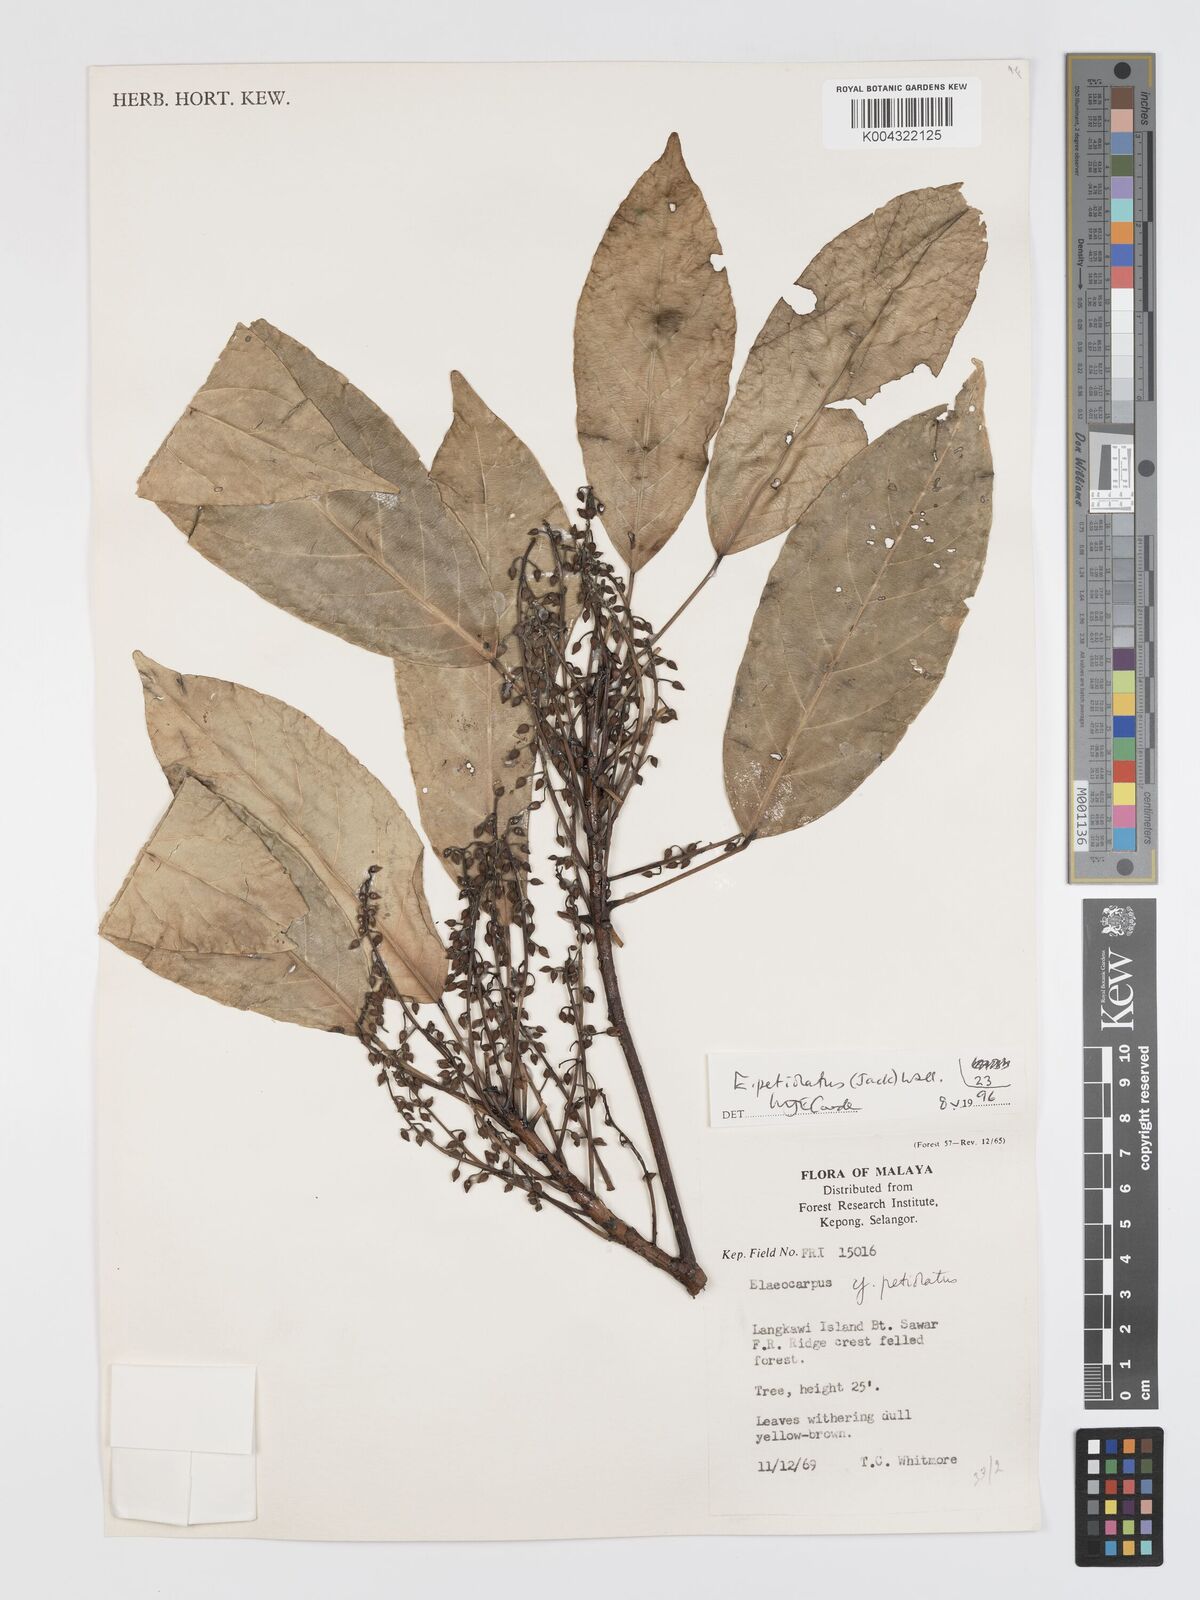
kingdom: Plantae
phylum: Tracheophyta
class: Magnoliopsida
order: Oxalidales
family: Elaeocarpaceae
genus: Elaeocarpus
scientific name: Elaeocarpus petiolatus
